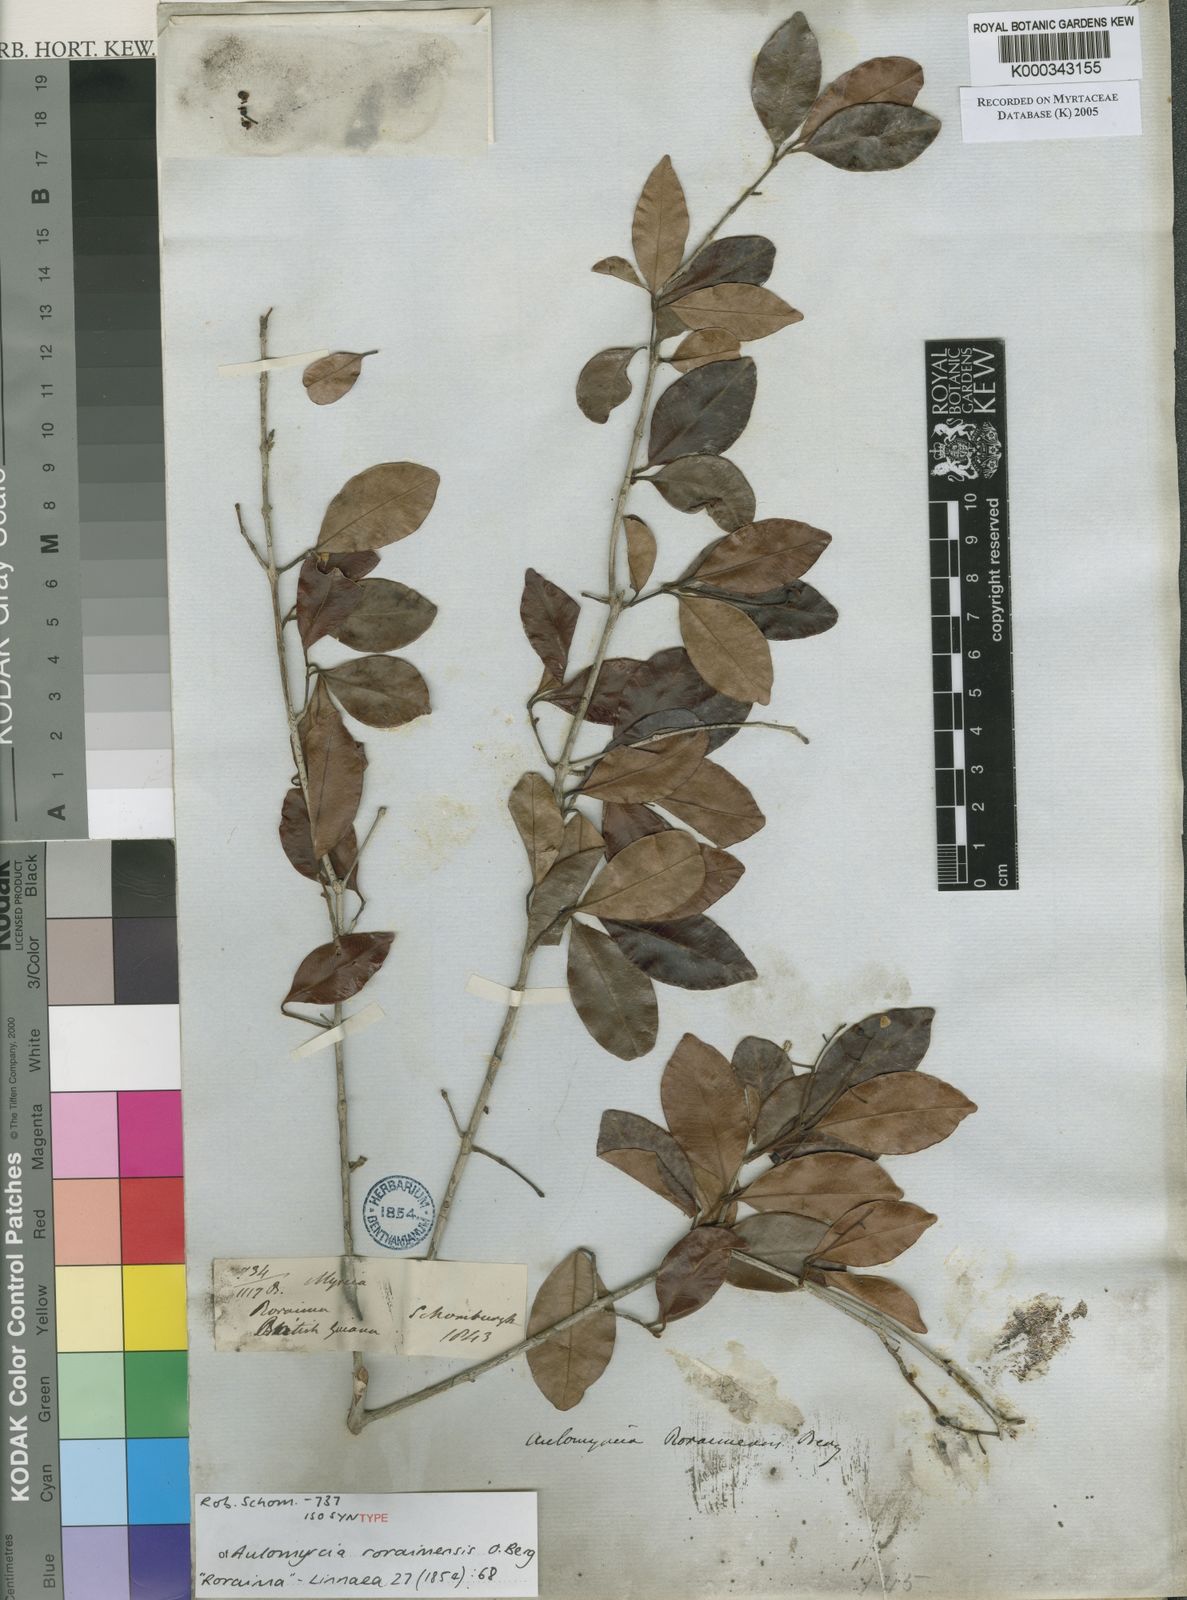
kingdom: Plantae
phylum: Tracheophyta
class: Magnoliopsida
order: Myrtales
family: Myrtaceae
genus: Myrcia
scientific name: Myrcia guianensis
